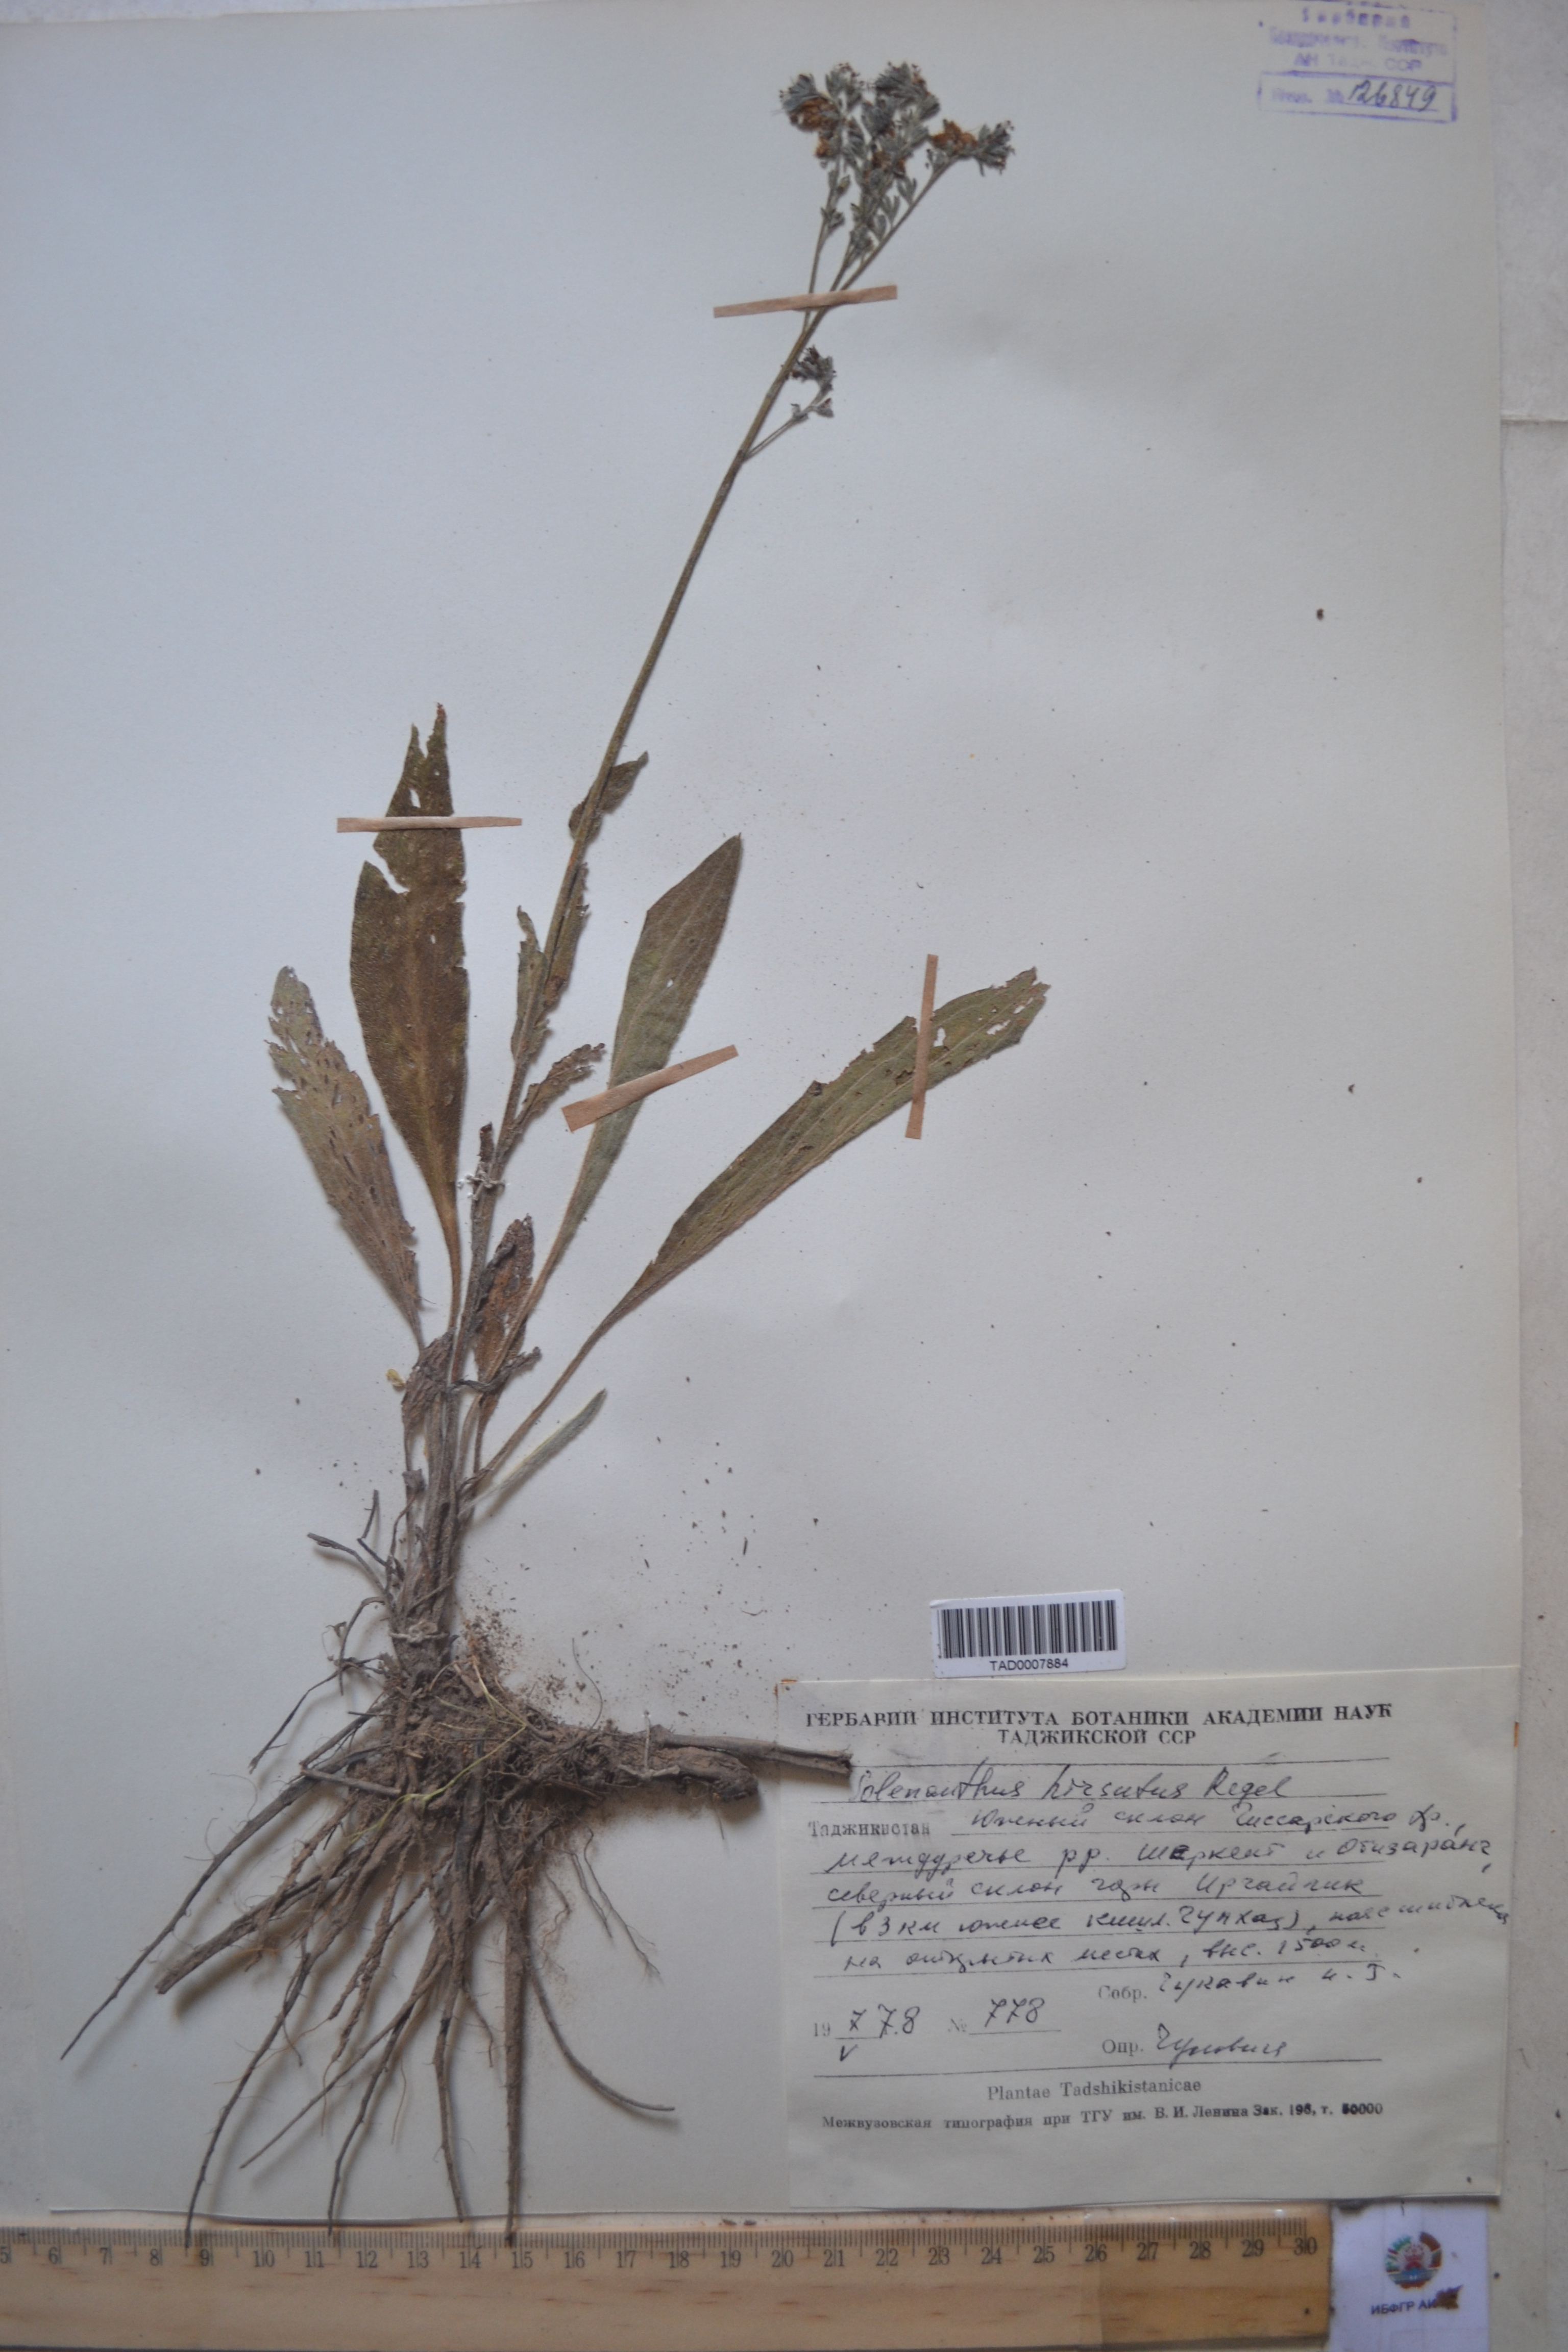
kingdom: Plantae
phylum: Tracheophyta
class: Magnoliopsida
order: Boraginales
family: Boraginaceae
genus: Solenanthus
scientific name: Solenanthus hirsutus
